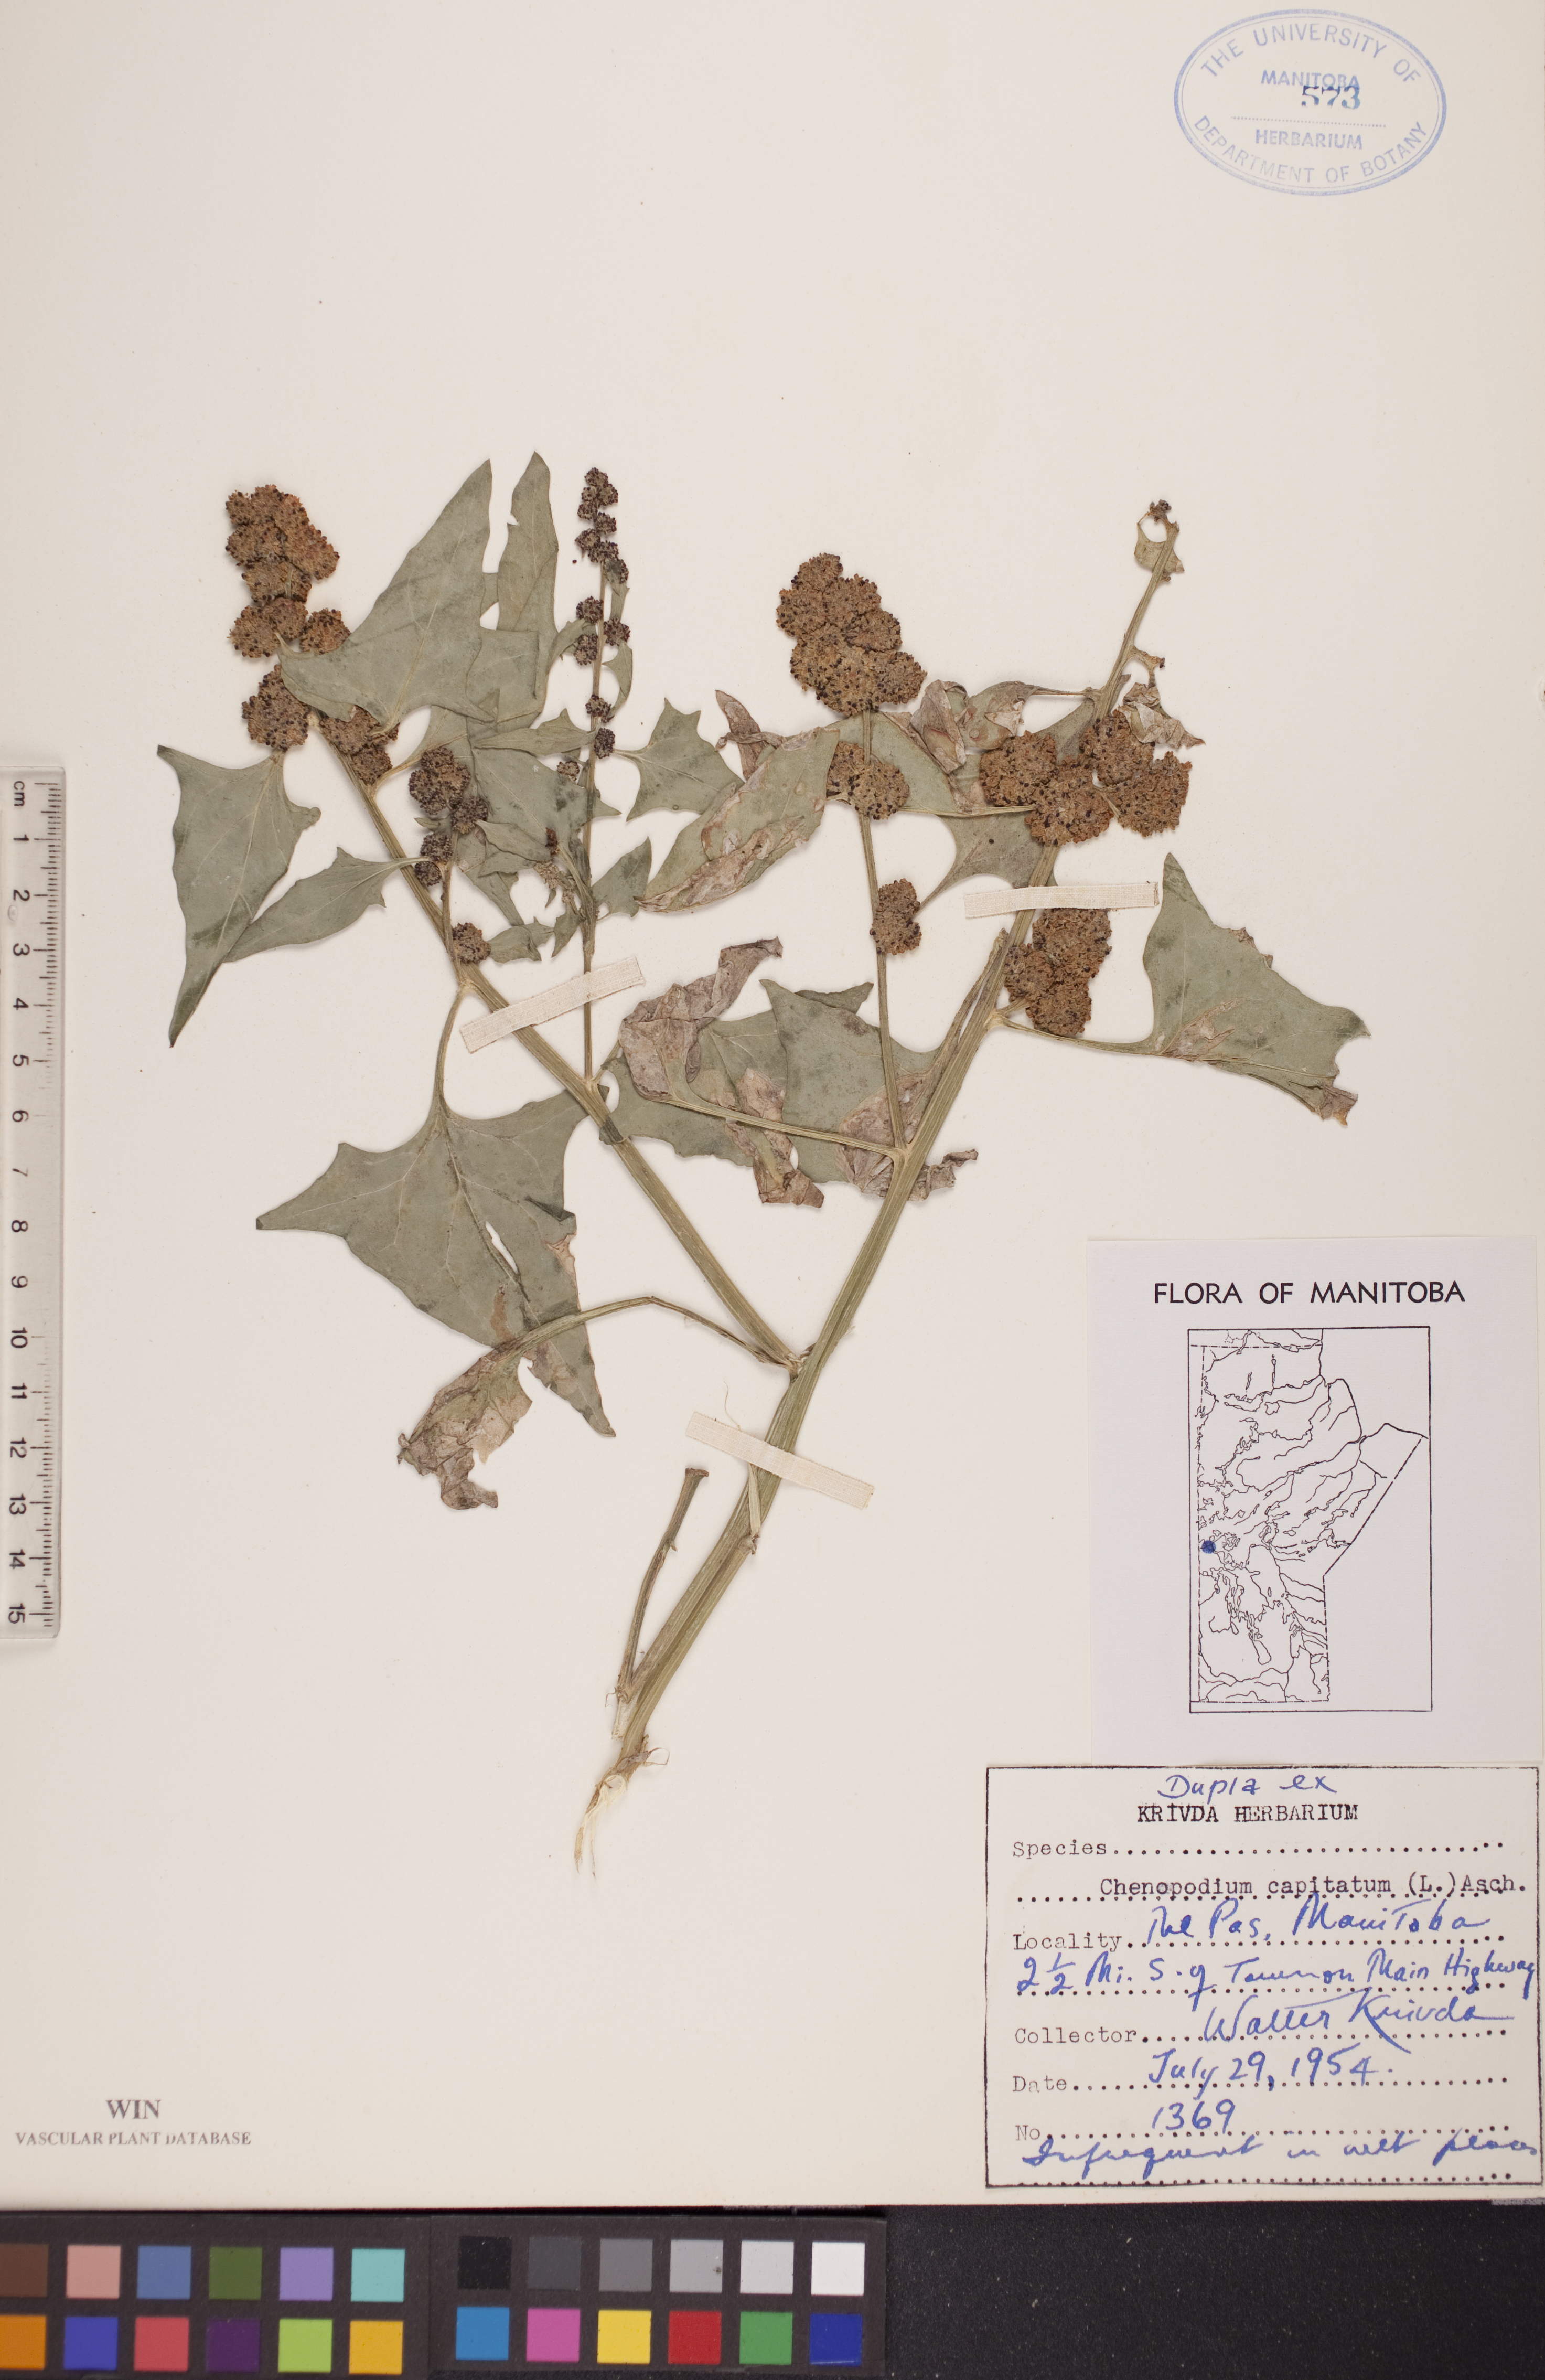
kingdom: Plantae
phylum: Tracheophyta
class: Magnoliopsida
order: Caryophyllales
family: Amaranthaceae
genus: Blitum
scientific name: Blitum capitatum
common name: Strawberry-blight
